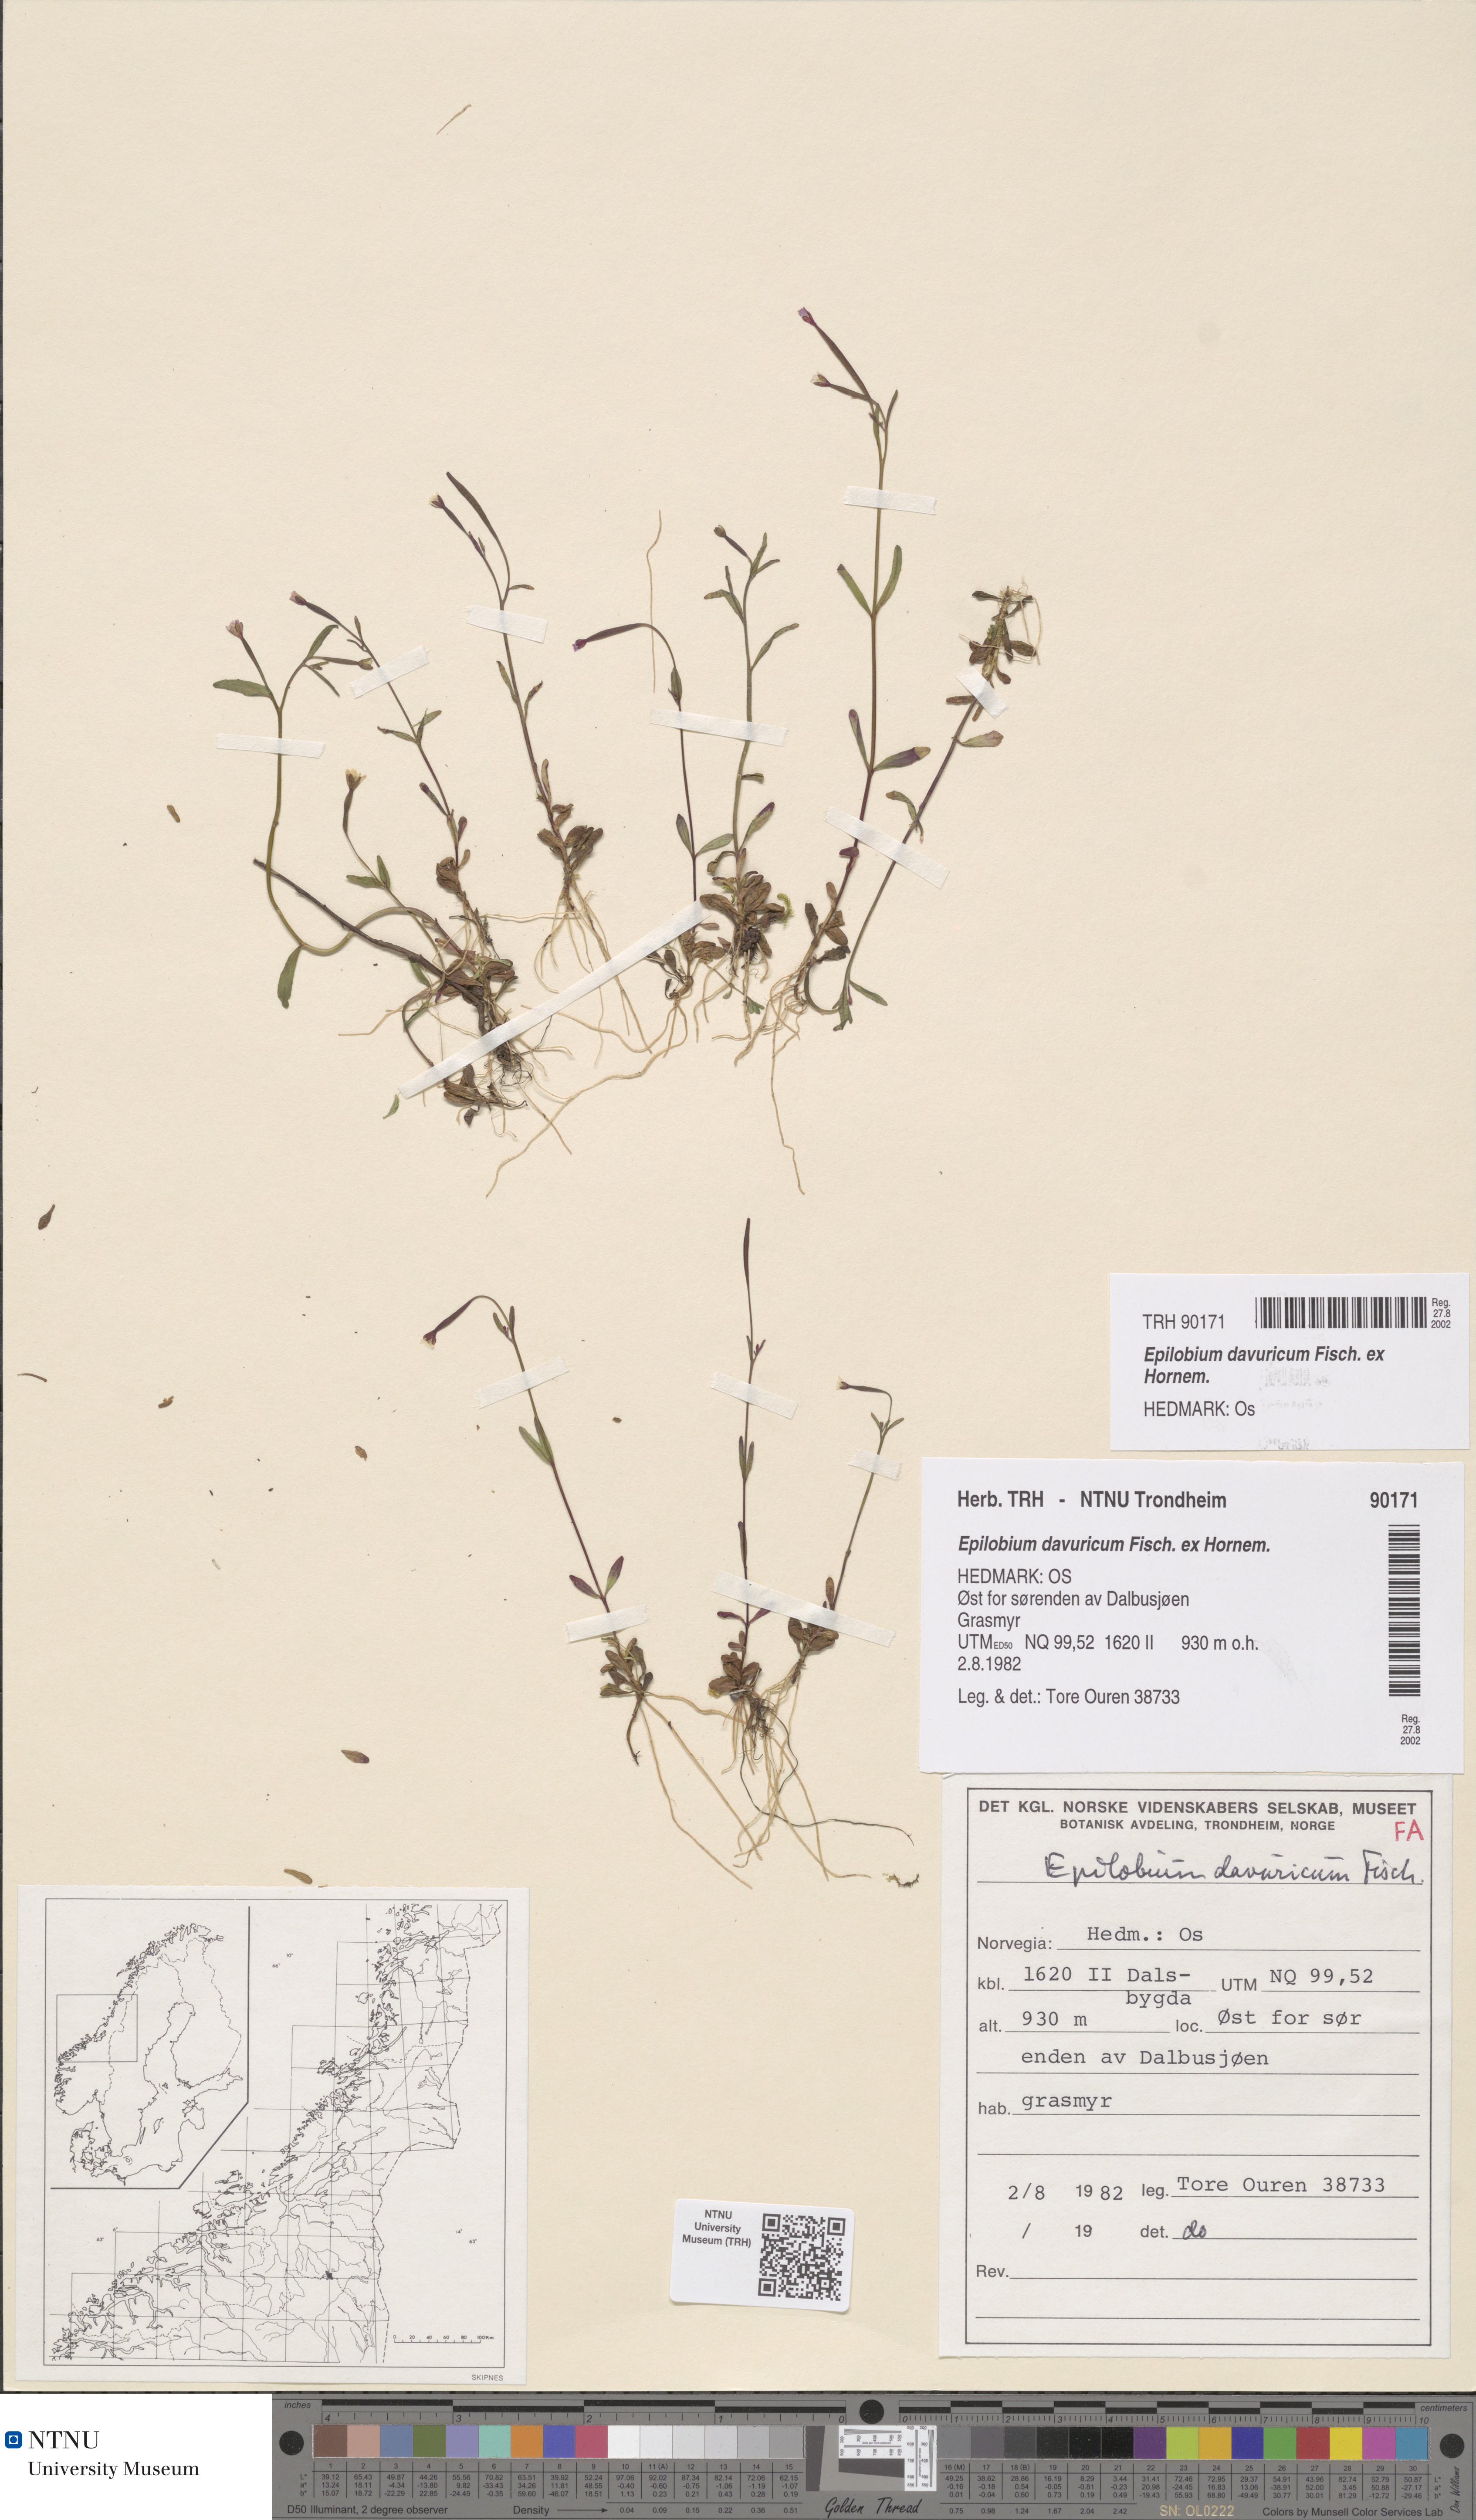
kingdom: Plantae
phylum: Tracheophyta
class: Magnoliopsida
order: Myrtales
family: Onagraceae
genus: Epilobium
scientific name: Epilobium davuricum
